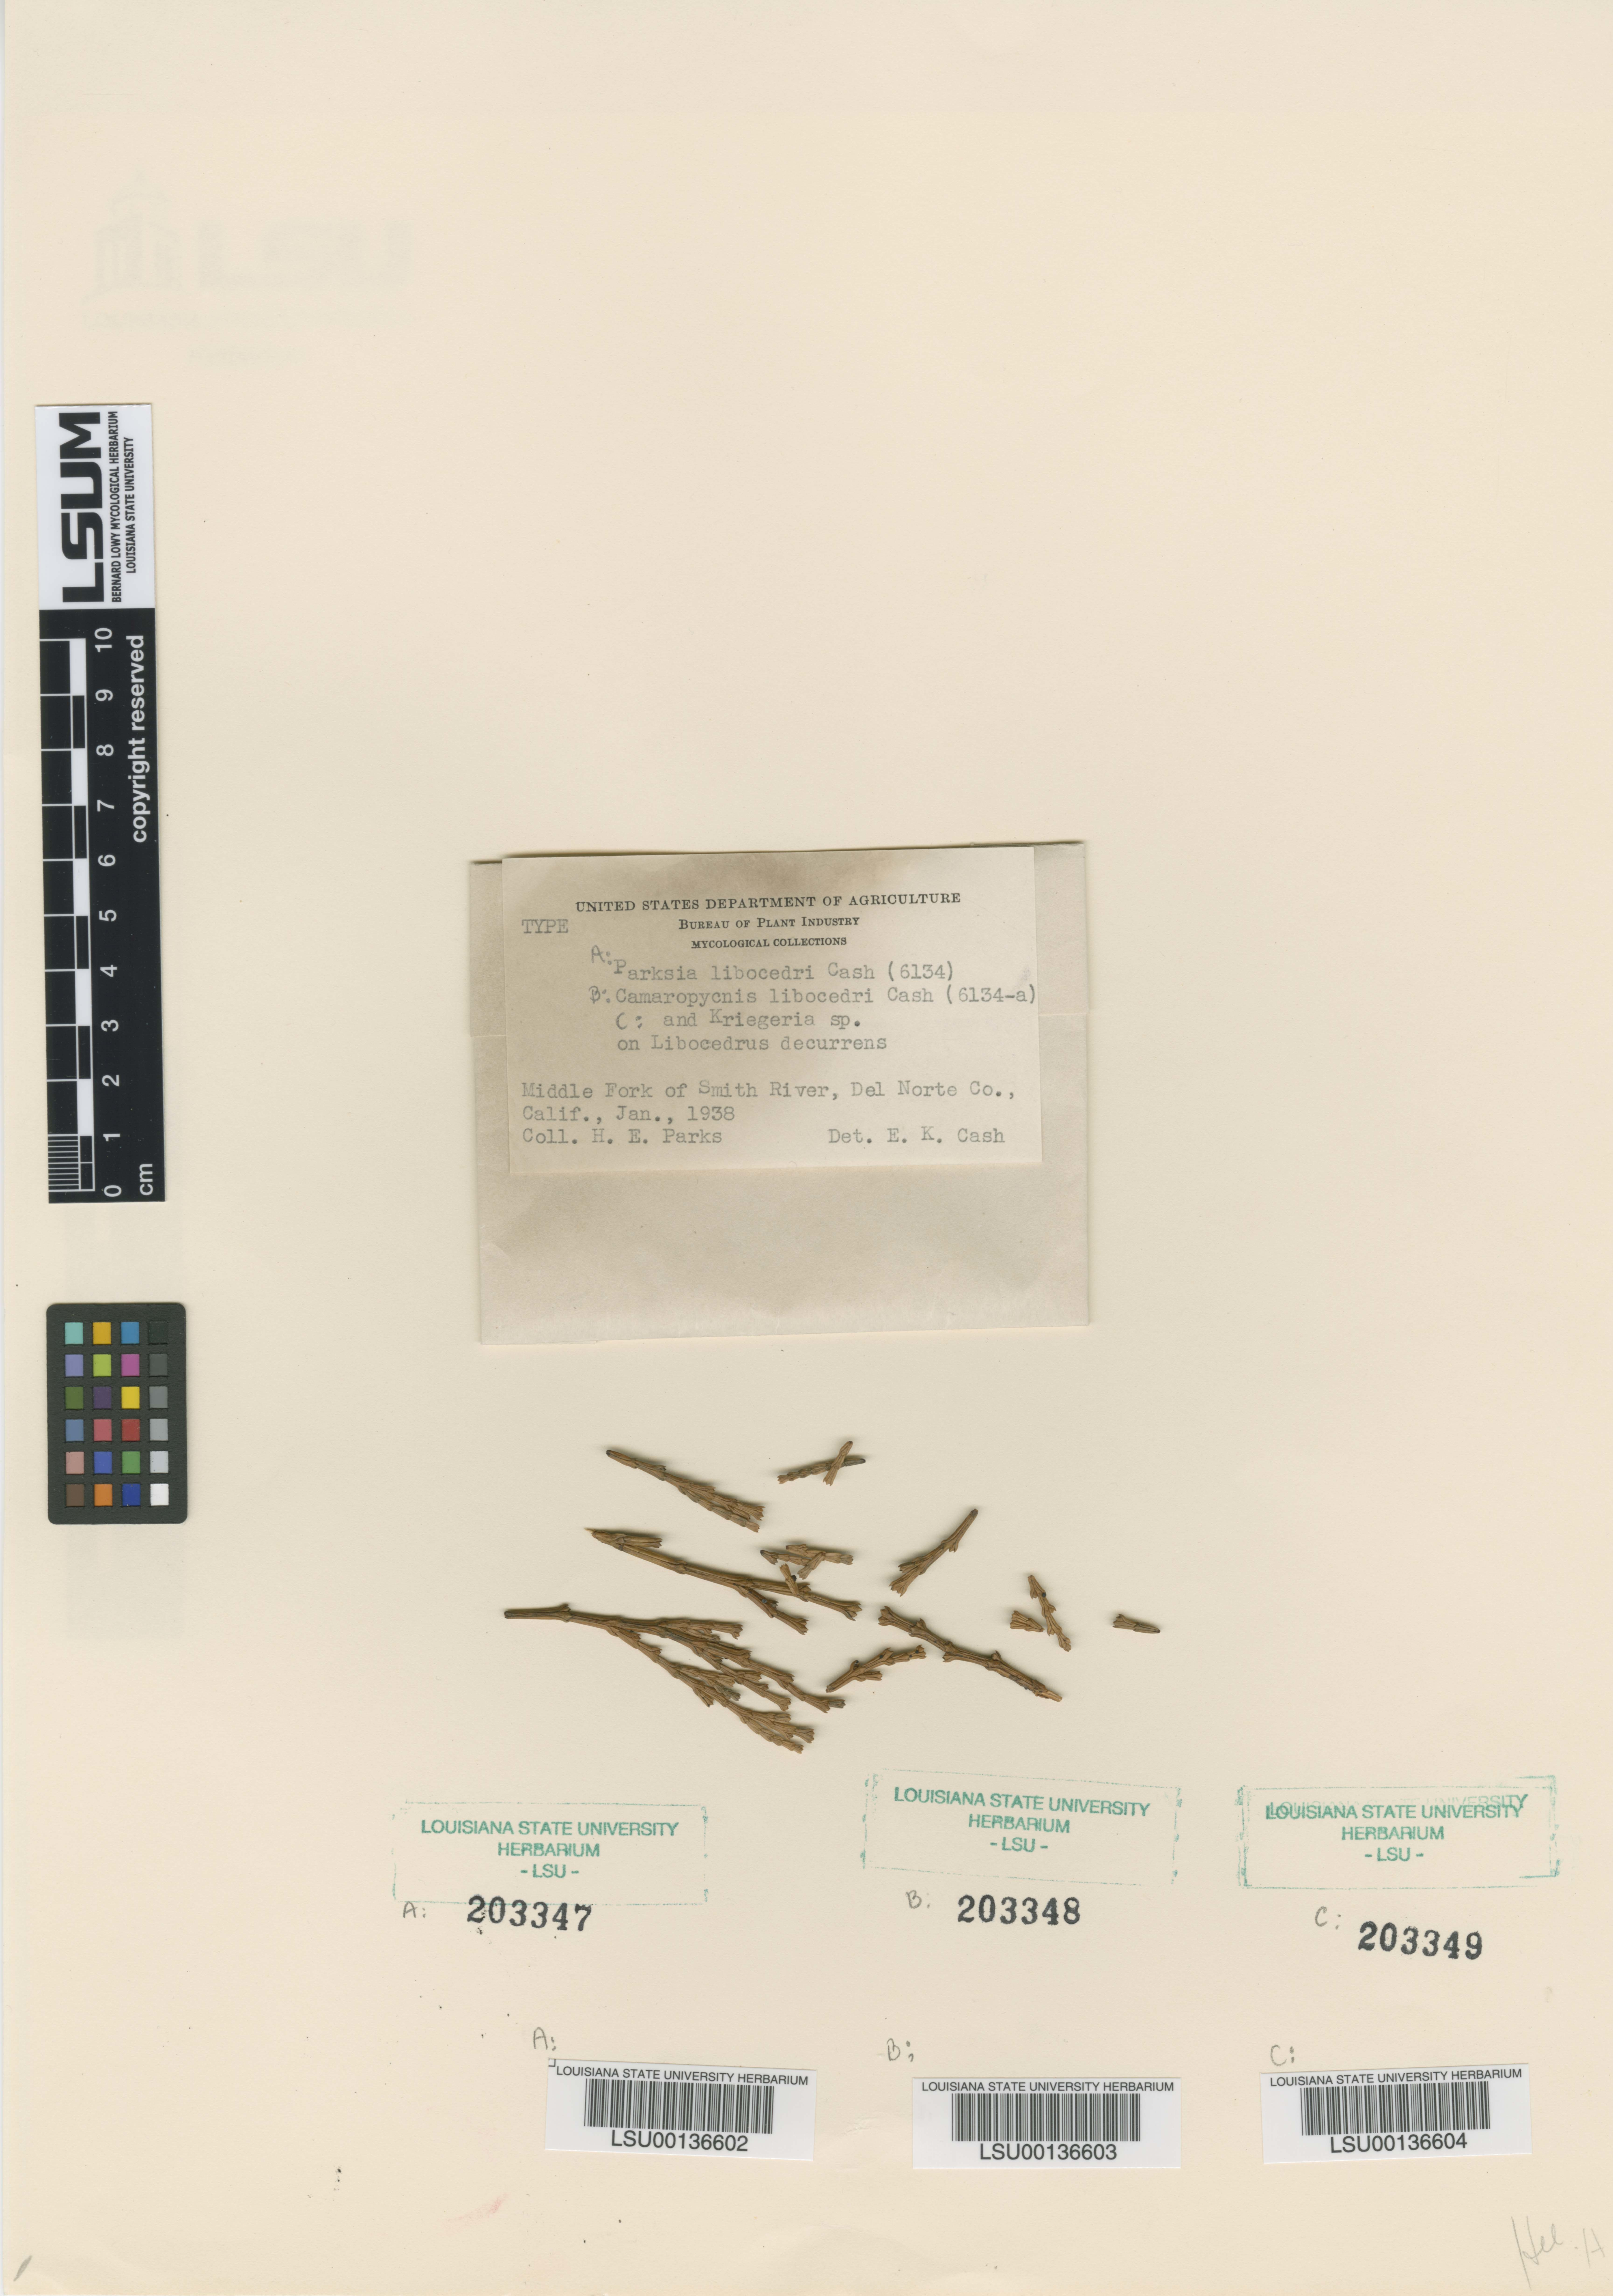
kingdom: Fungi
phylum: Ascomycota
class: Leotiomycetes
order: Helotiales
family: Gelatinodiscaceae
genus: Parksia
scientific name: Parksia libocedri
